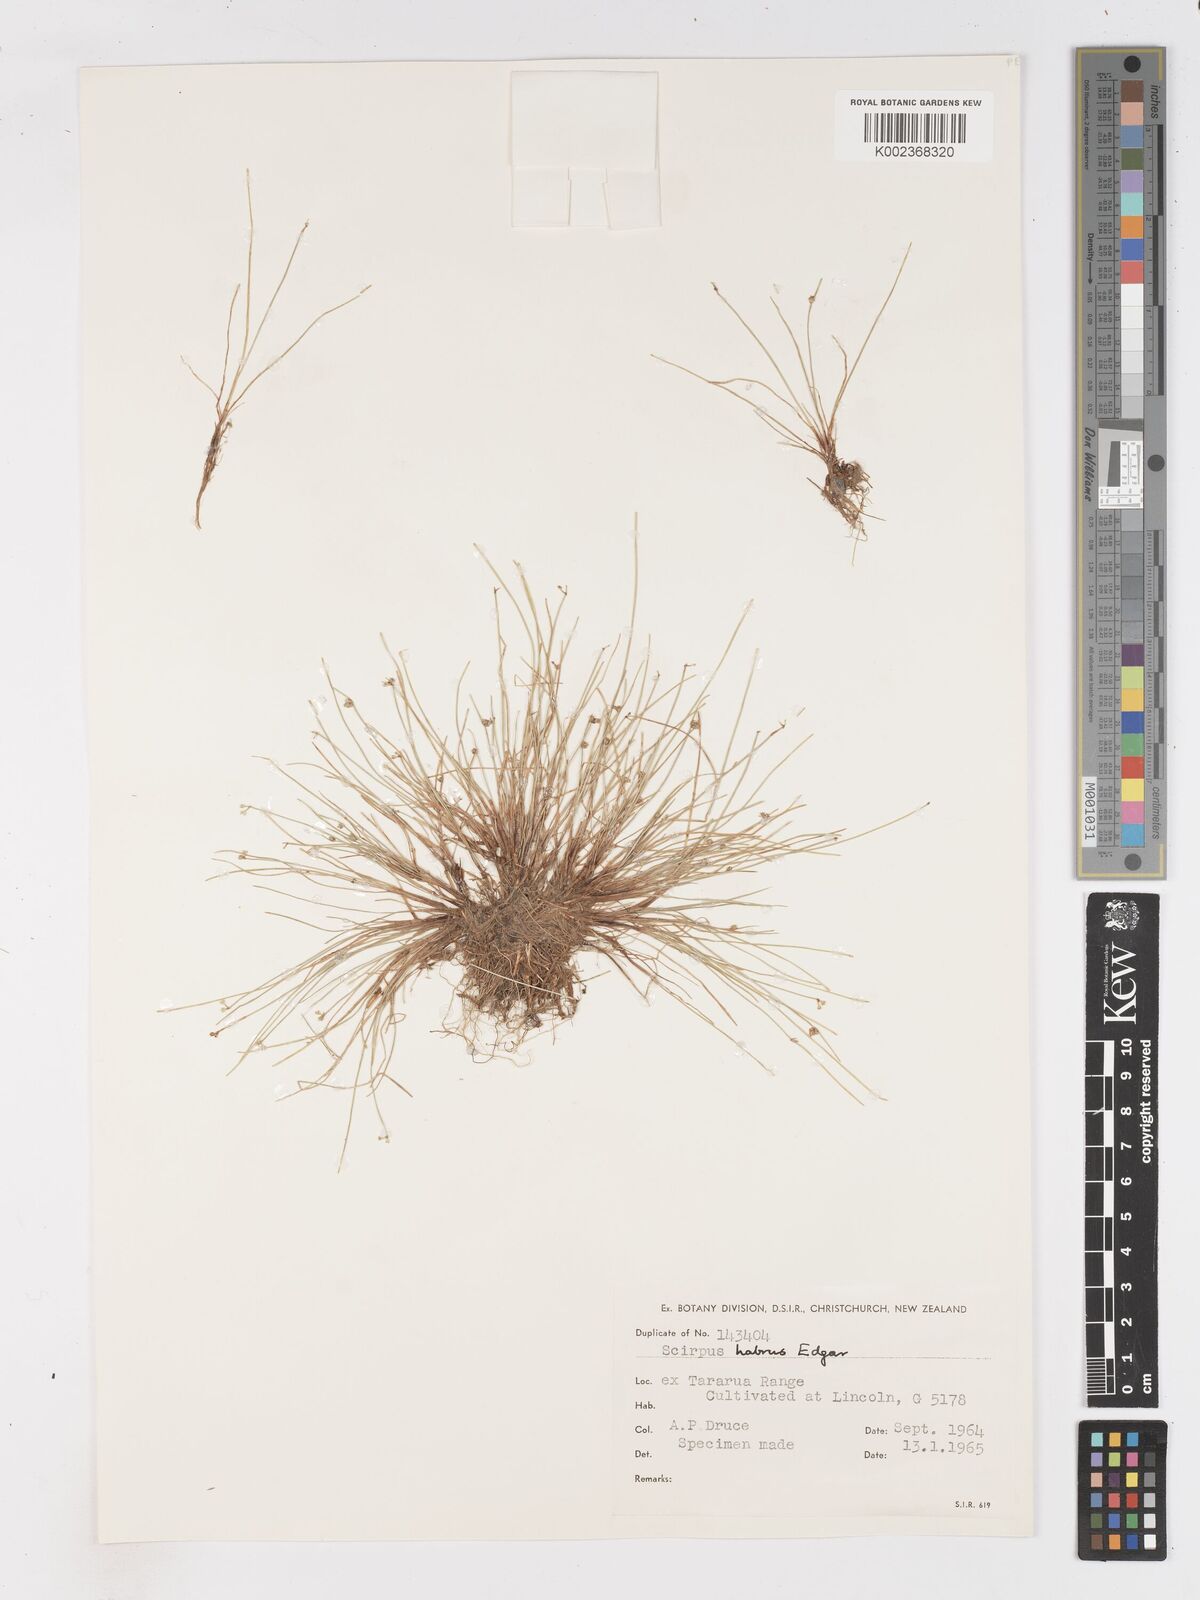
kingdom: Plantae
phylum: Tracheophyta
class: Liliopsida
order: Poales
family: Cyperaceae
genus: Isolepis
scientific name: Isolepis habra
